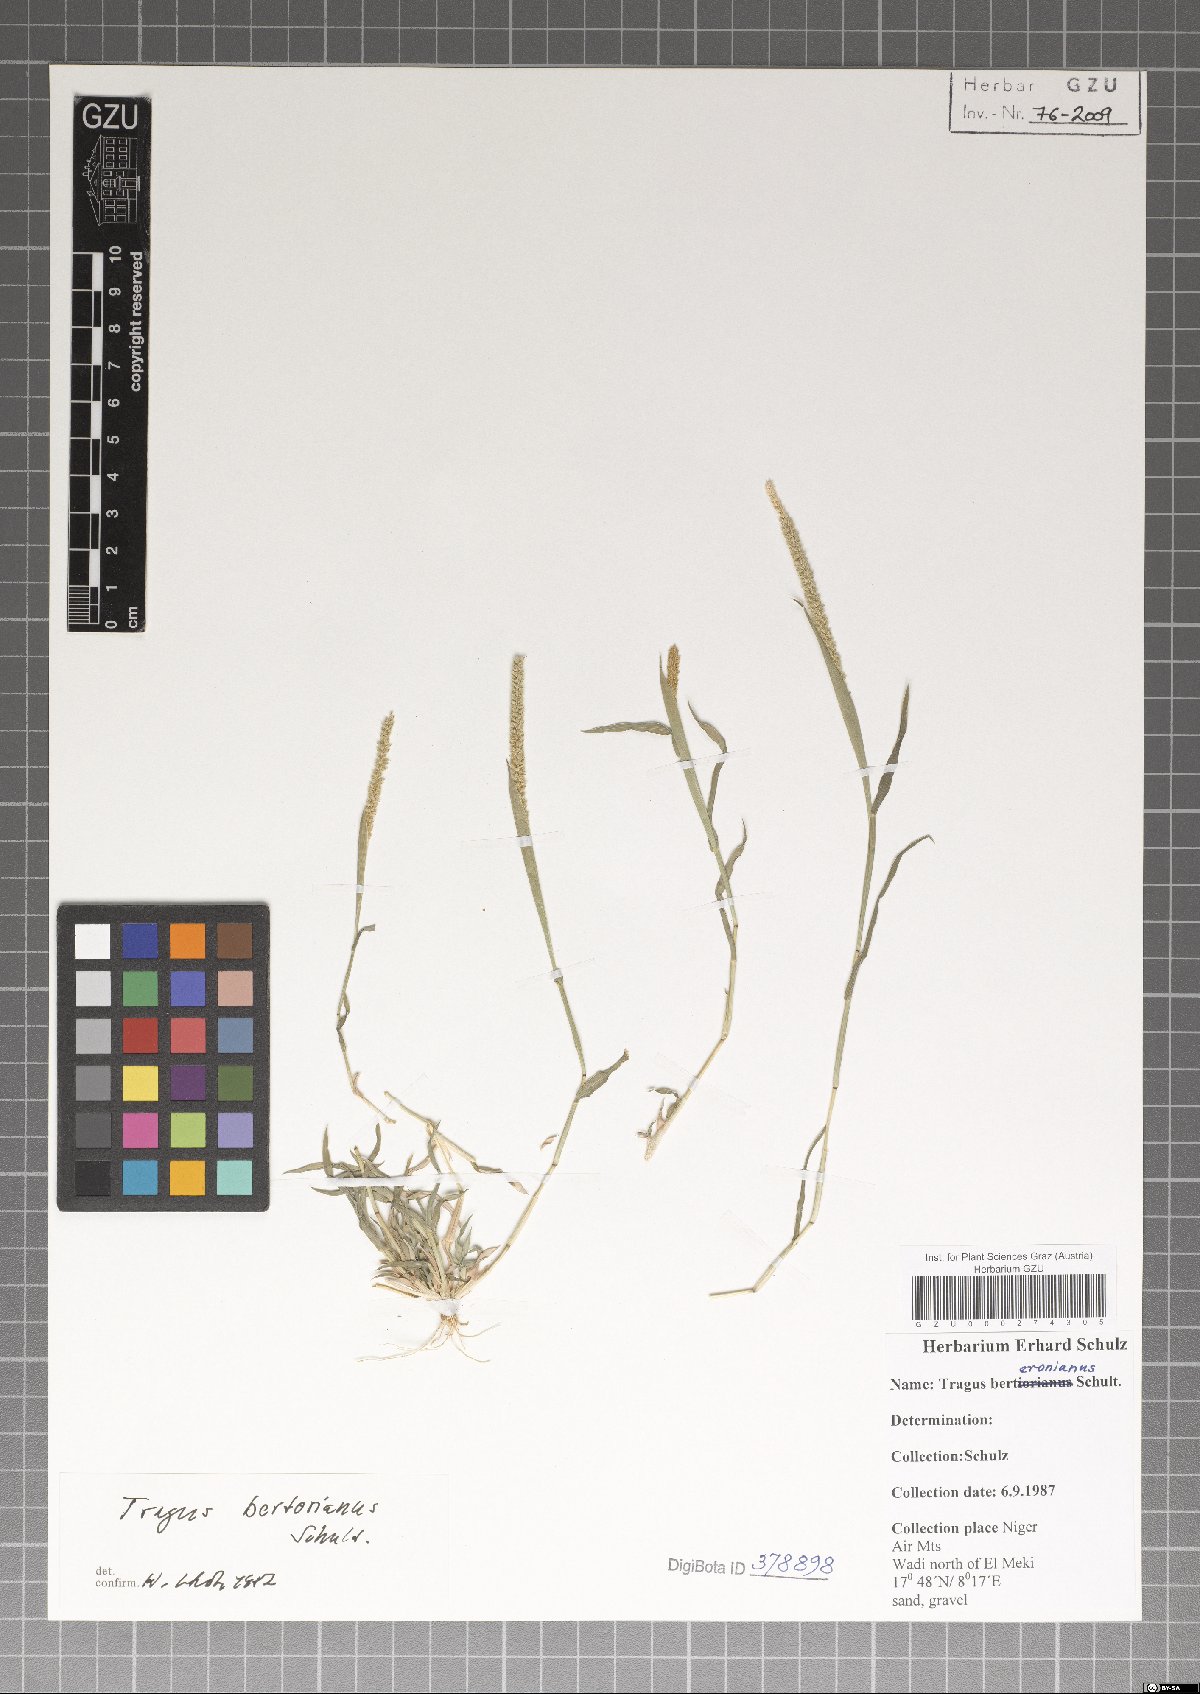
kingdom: Plantae
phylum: Tracheophyta
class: Liliopsida
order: Poales
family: Poaceae
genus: Tragus
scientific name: Tragus berteronianus
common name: African bur-grass
